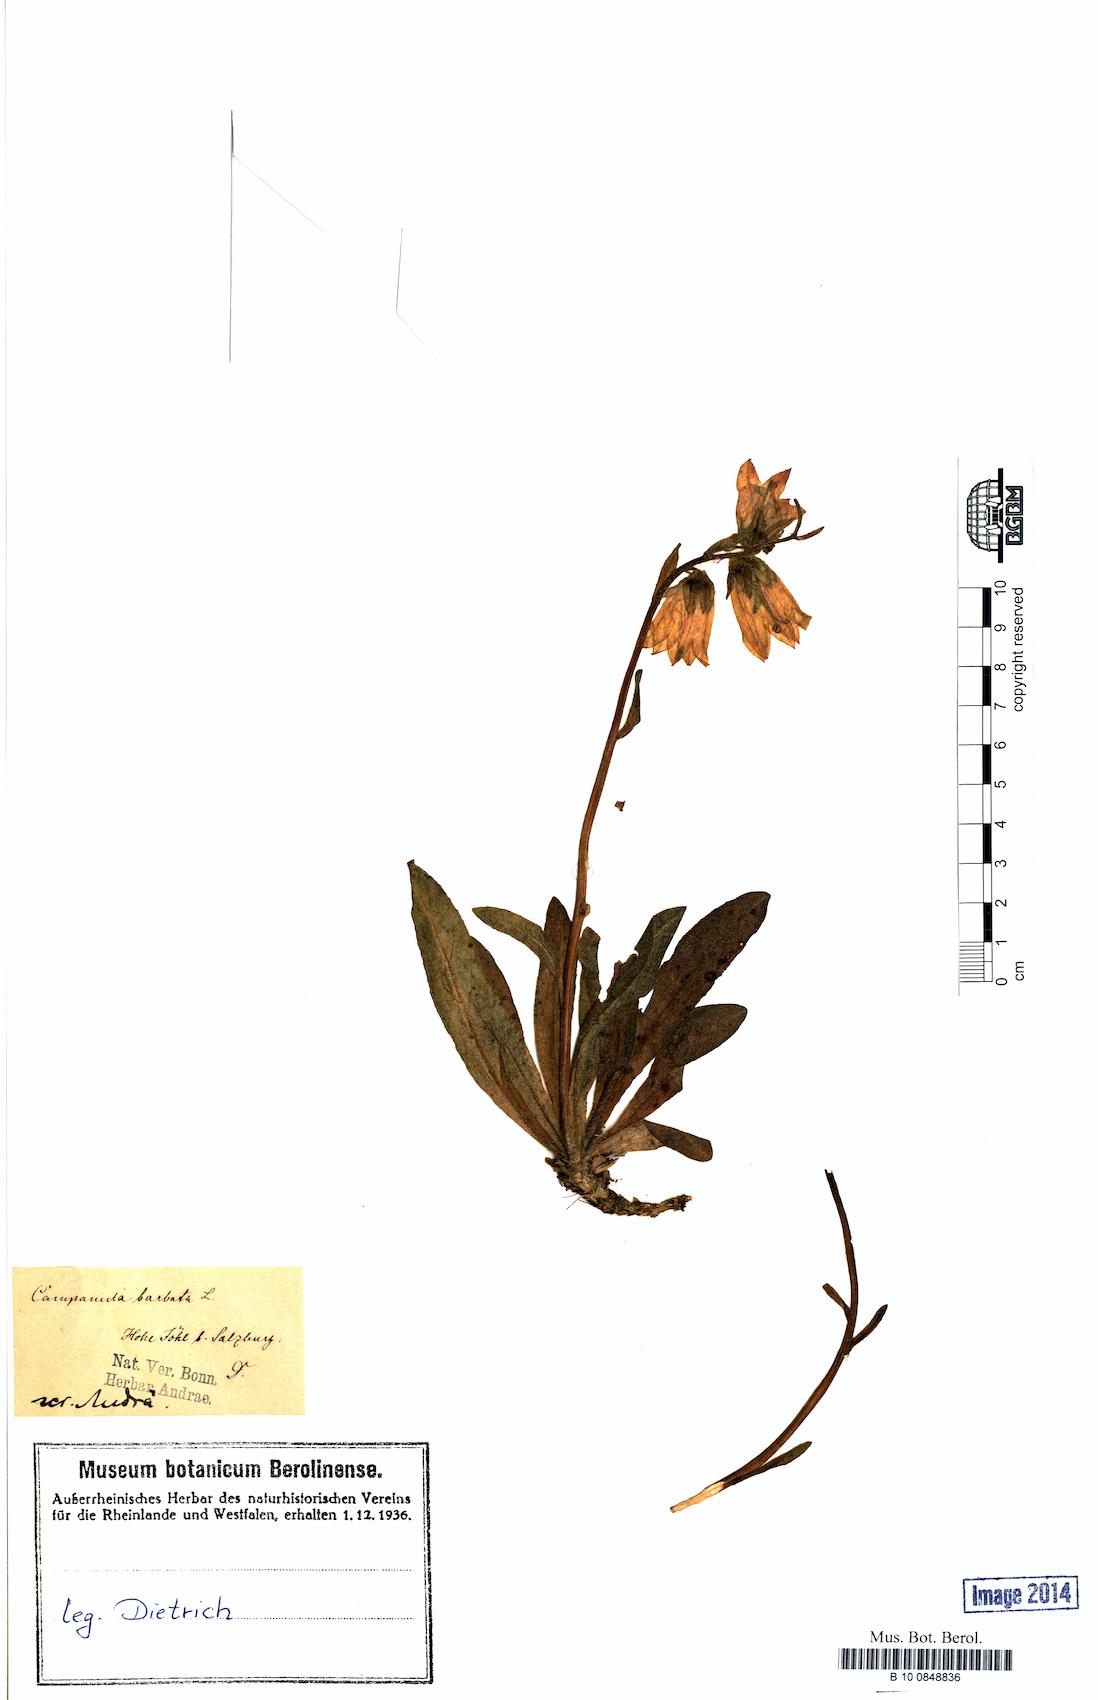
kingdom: Plantae
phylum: Tracheophyta
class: Magnoliopsida
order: Asterales
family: Campanulaceae
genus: Campanula
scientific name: Campanula barbata
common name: Bearded bellflower
